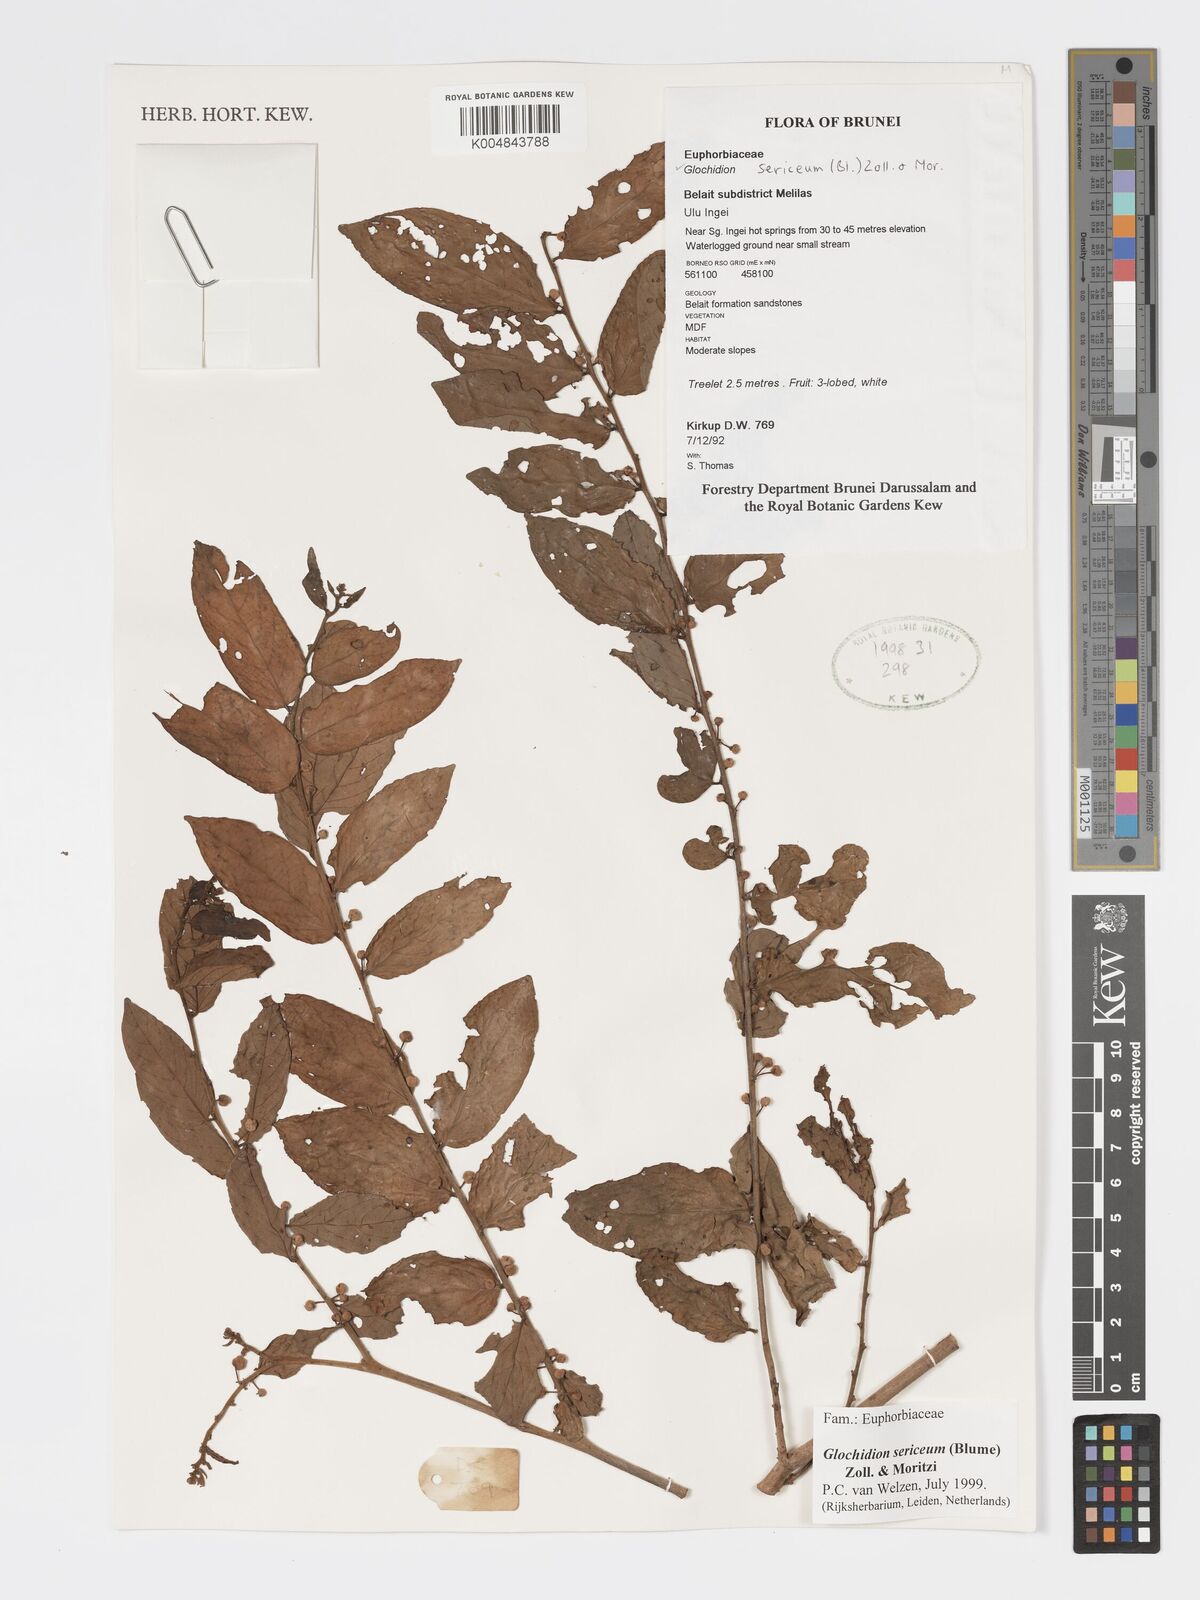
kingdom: Plantae
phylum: Tracheophyta
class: Magnoliopsida
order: Malpighiales
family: Phyllanthaceae
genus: Glochidion
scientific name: Glochidion sericeum
